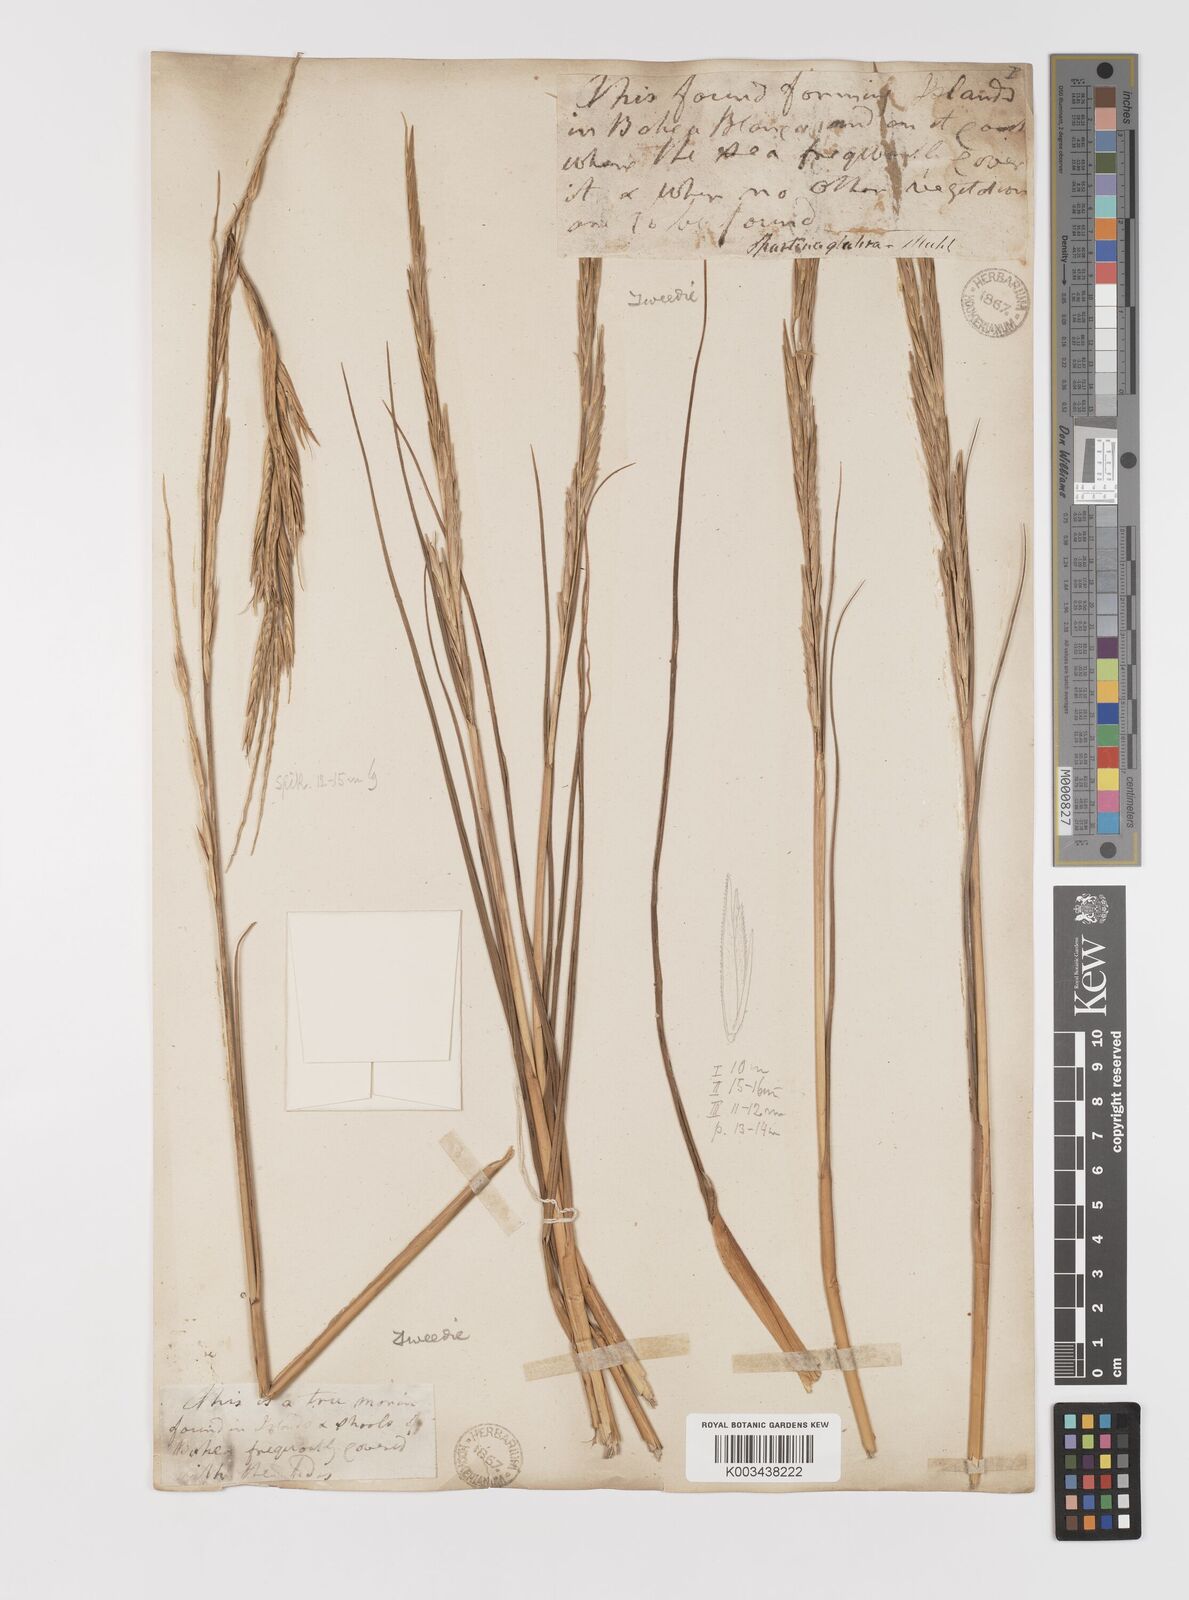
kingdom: Plantae
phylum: Tracheophyta
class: Liliopsida
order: Poales
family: Poaceae
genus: Sporobolus
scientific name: Sporobolus alterniflorus
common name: Atlantic cordgrass
